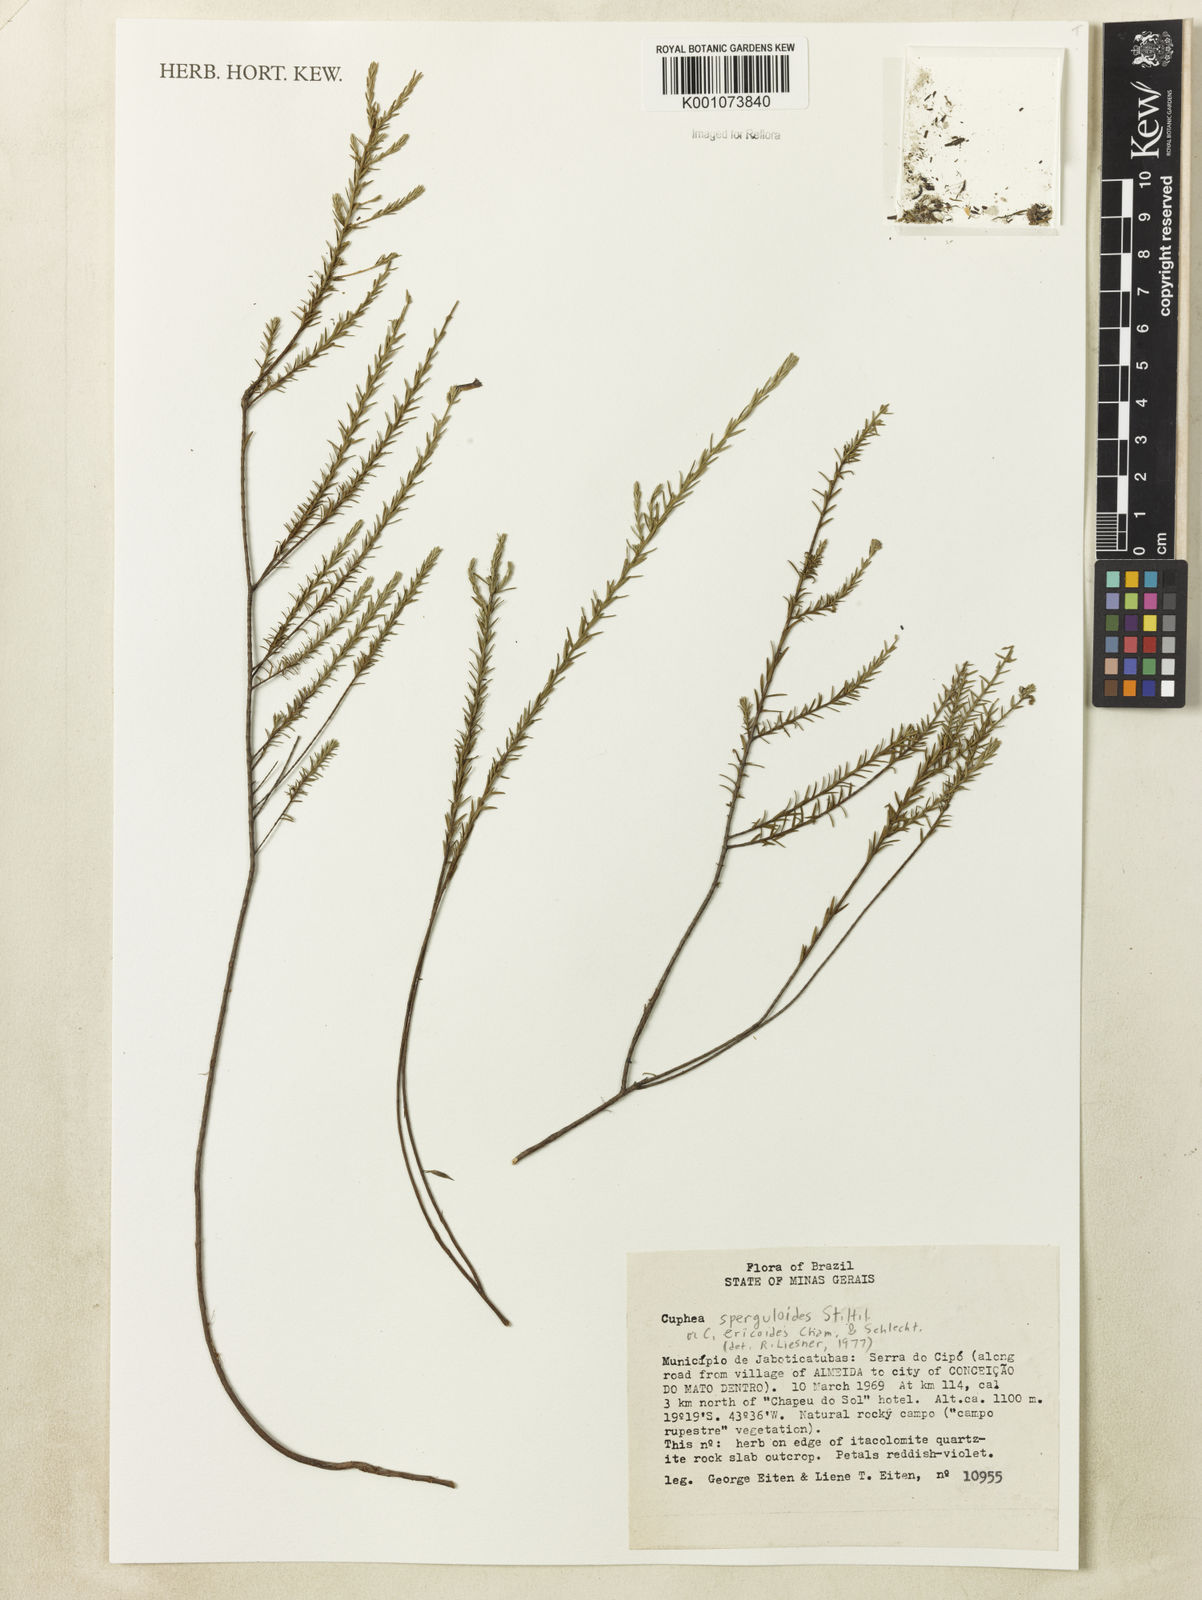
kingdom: Plantae
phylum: Tracheophyta
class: Magnoliopsida
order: Myrtales
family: Lythraceae
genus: Cuphea
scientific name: Cuphea sperguloides
